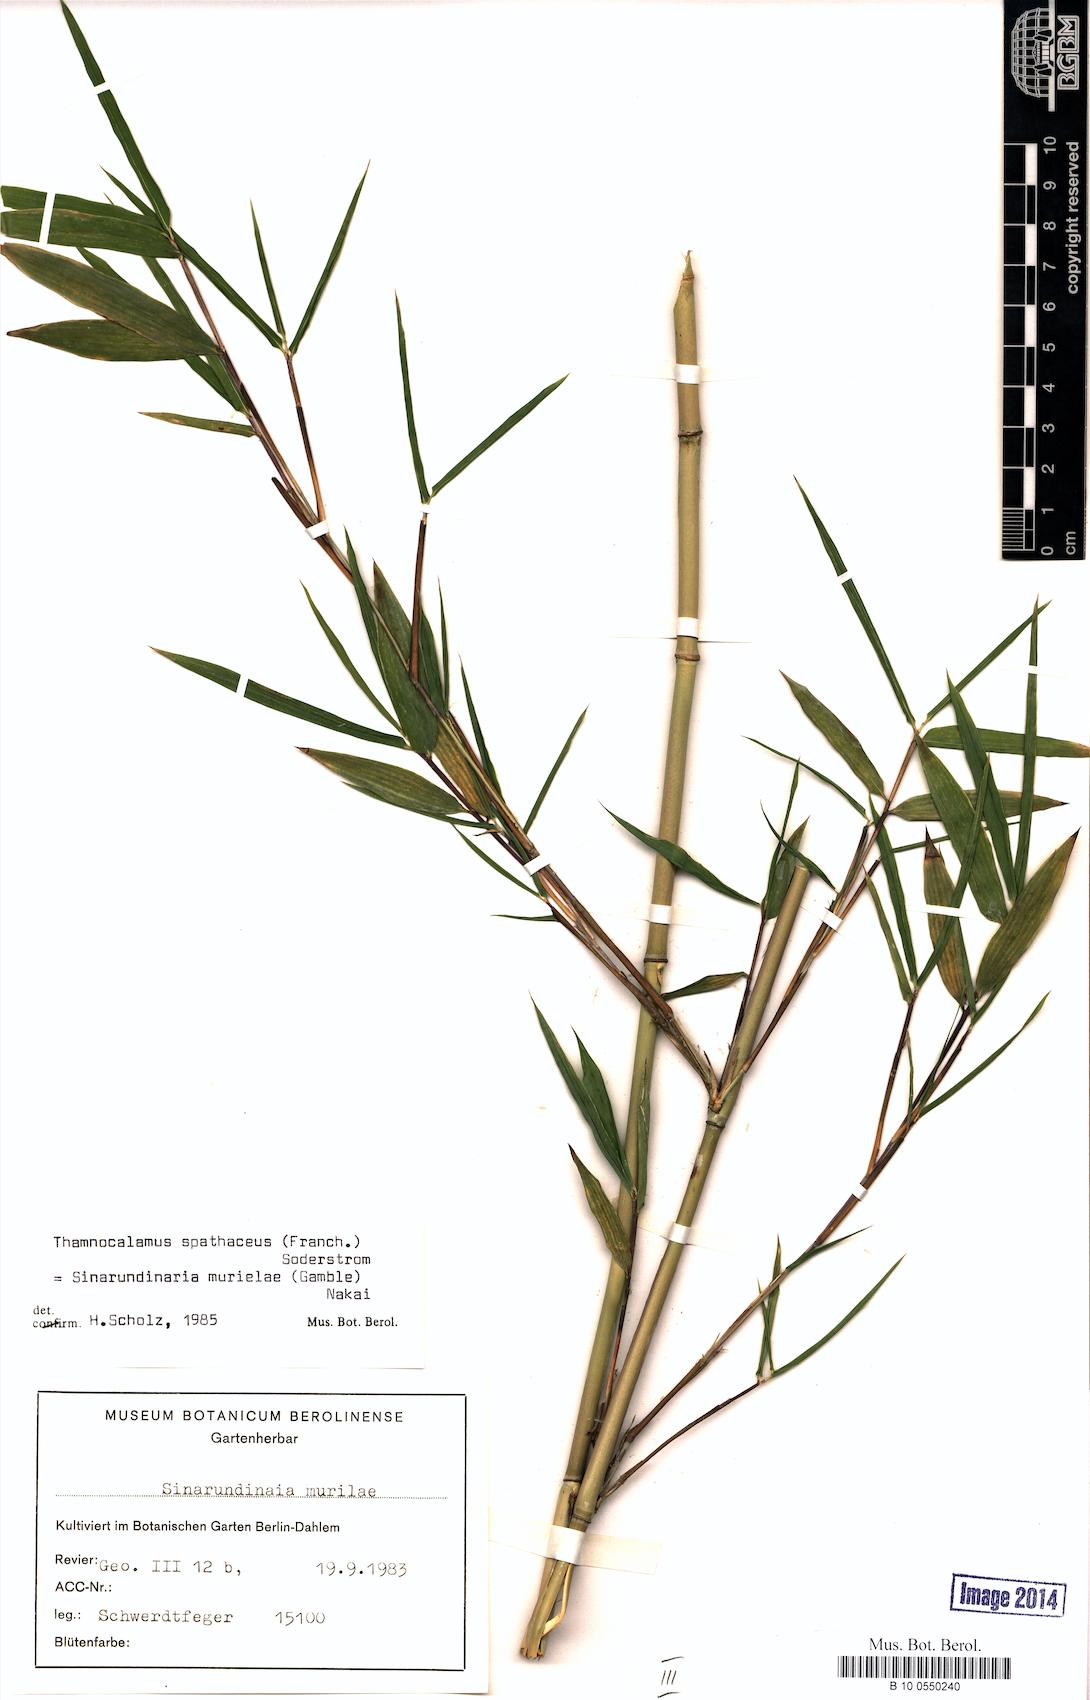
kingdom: Plantae
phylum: Tracheophyta
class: Liliopsida
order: Poales
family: Poaceae
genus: Fargesia
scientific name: Fargesia spathacea
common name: Chinese fountain-bamboo
